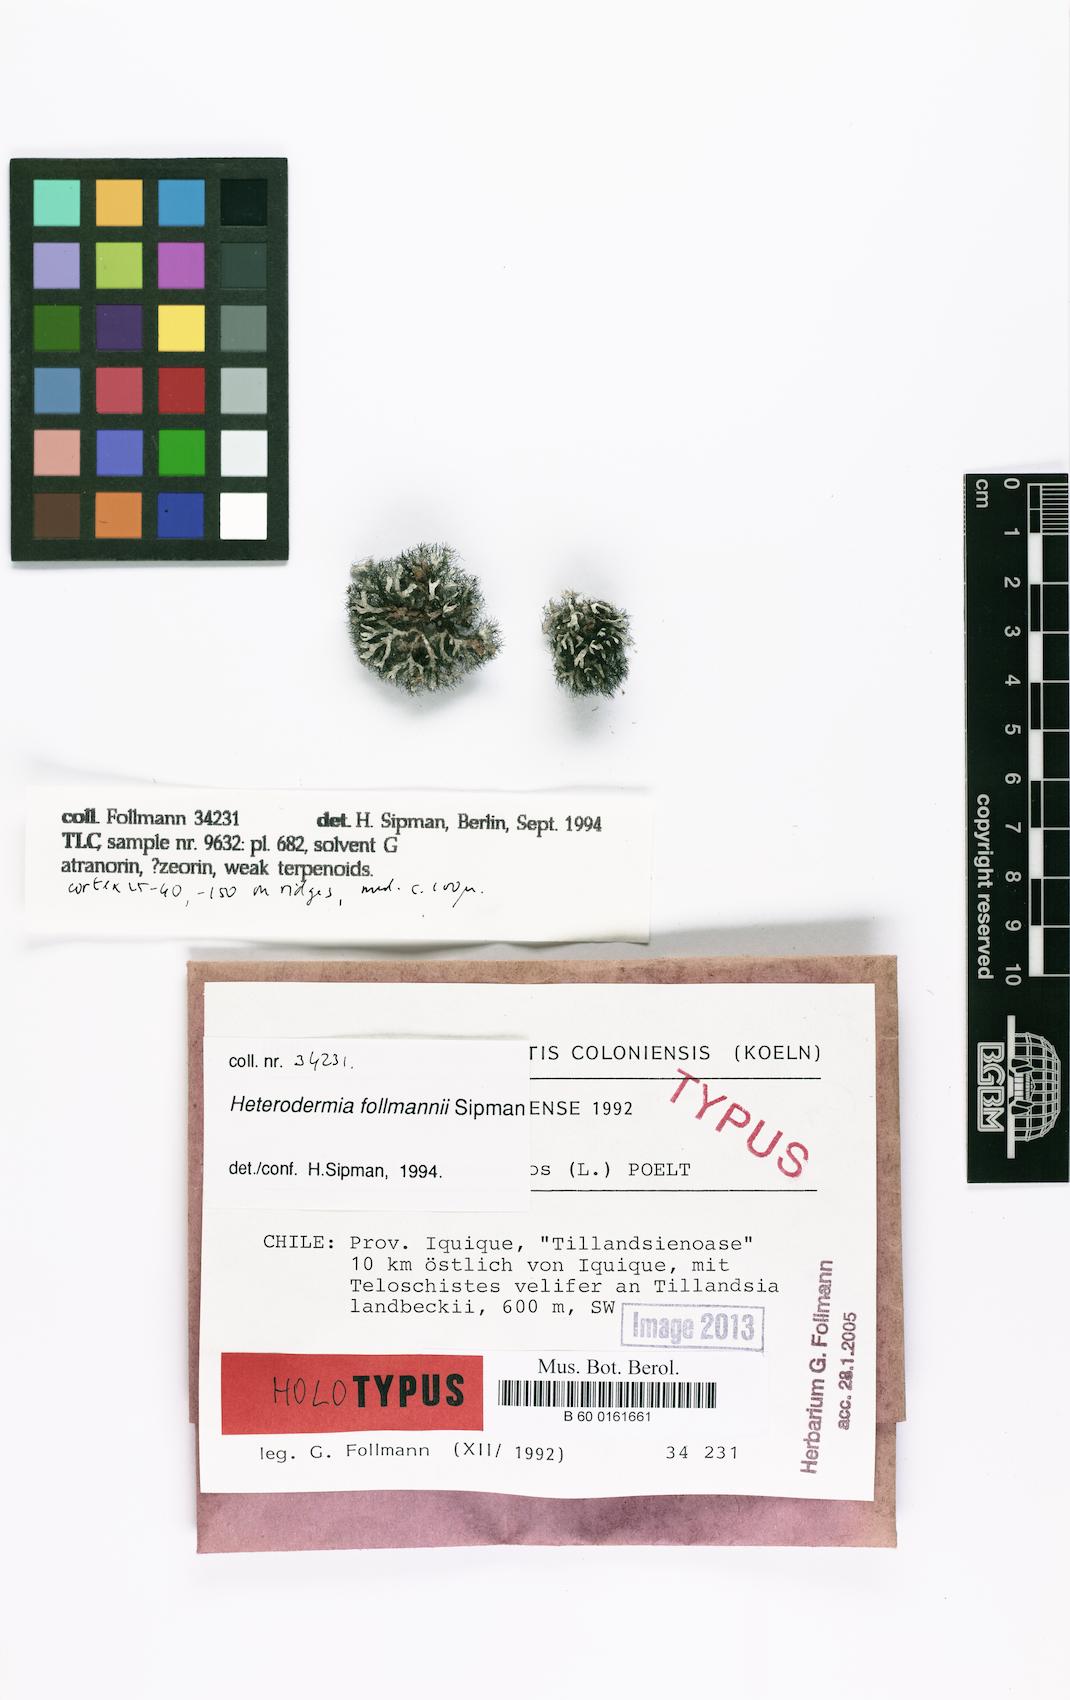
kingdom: Fungi
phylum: Ascomycota
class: Lecanoromycetes
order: Caliciales
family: Physciaceae
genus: Heterodermia
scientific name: Heterodermia follmannii
